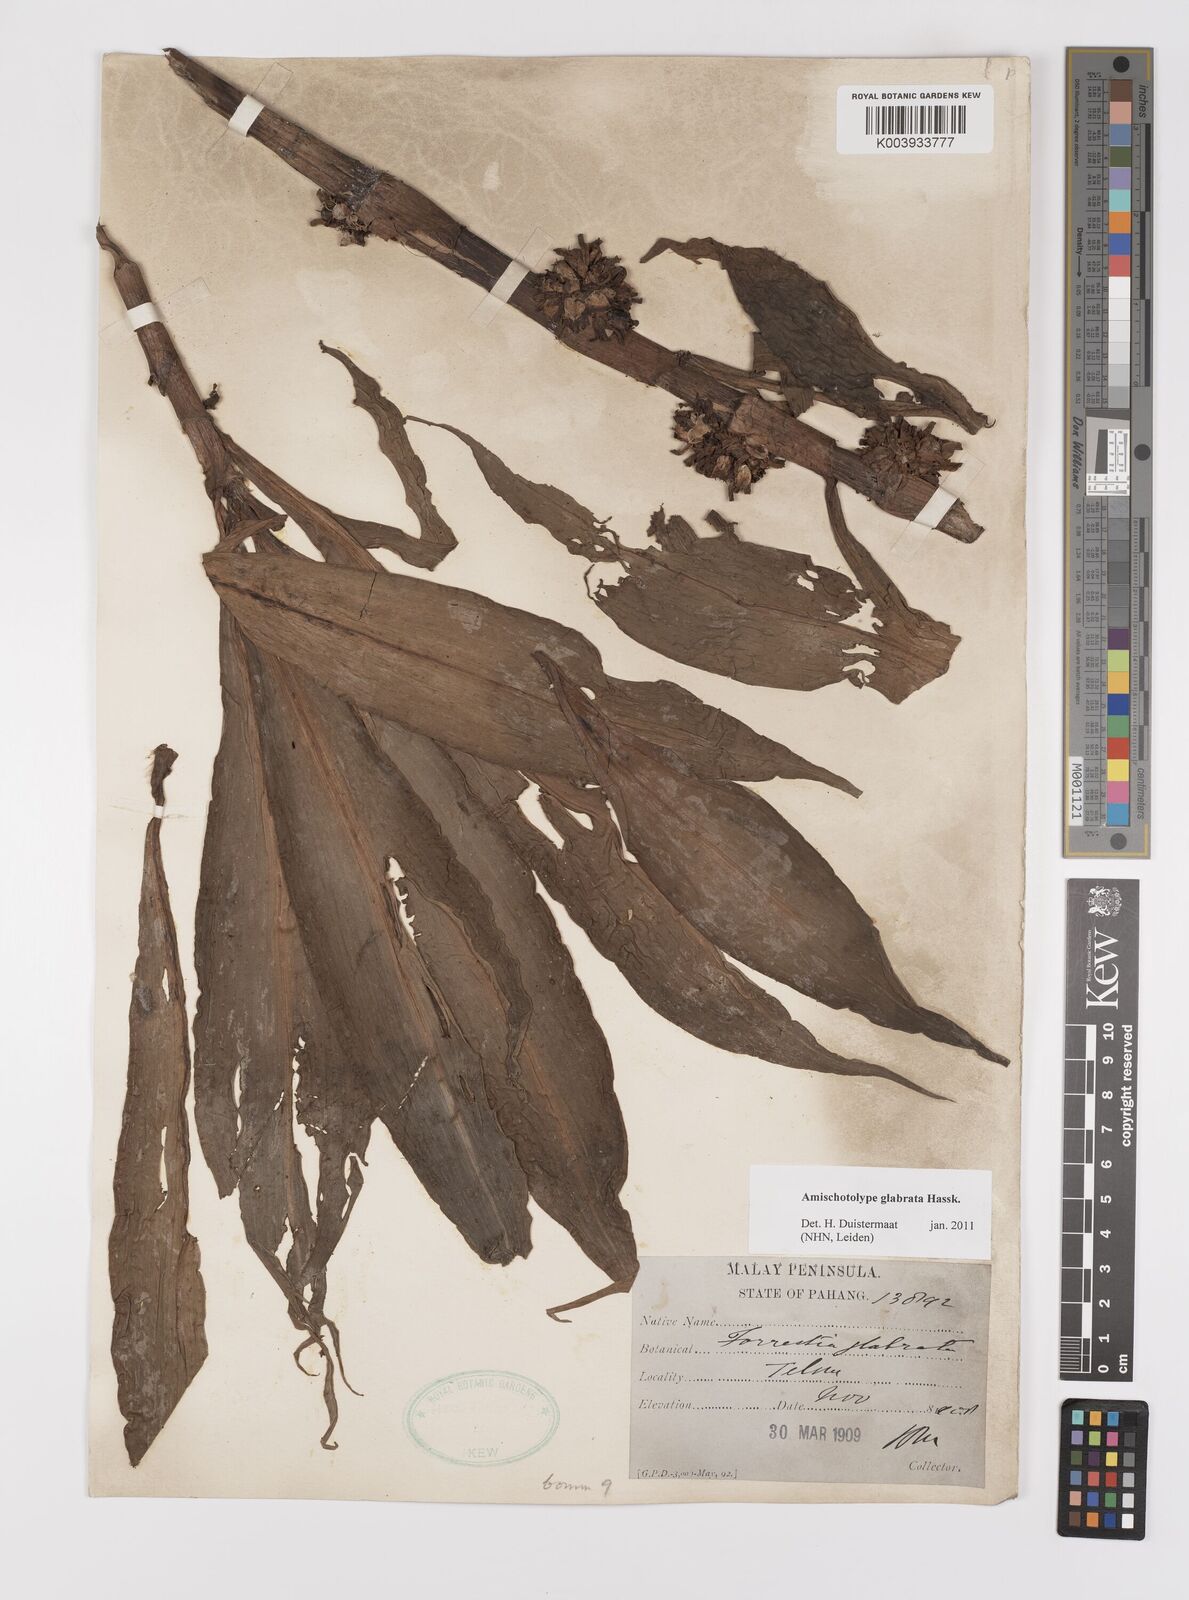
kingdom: Plantae
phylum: Tracheophyta
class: Liliopsida
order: Commelinales
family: Commelinaceae
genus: Amischotolype
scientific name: Amischotolype glabrata
